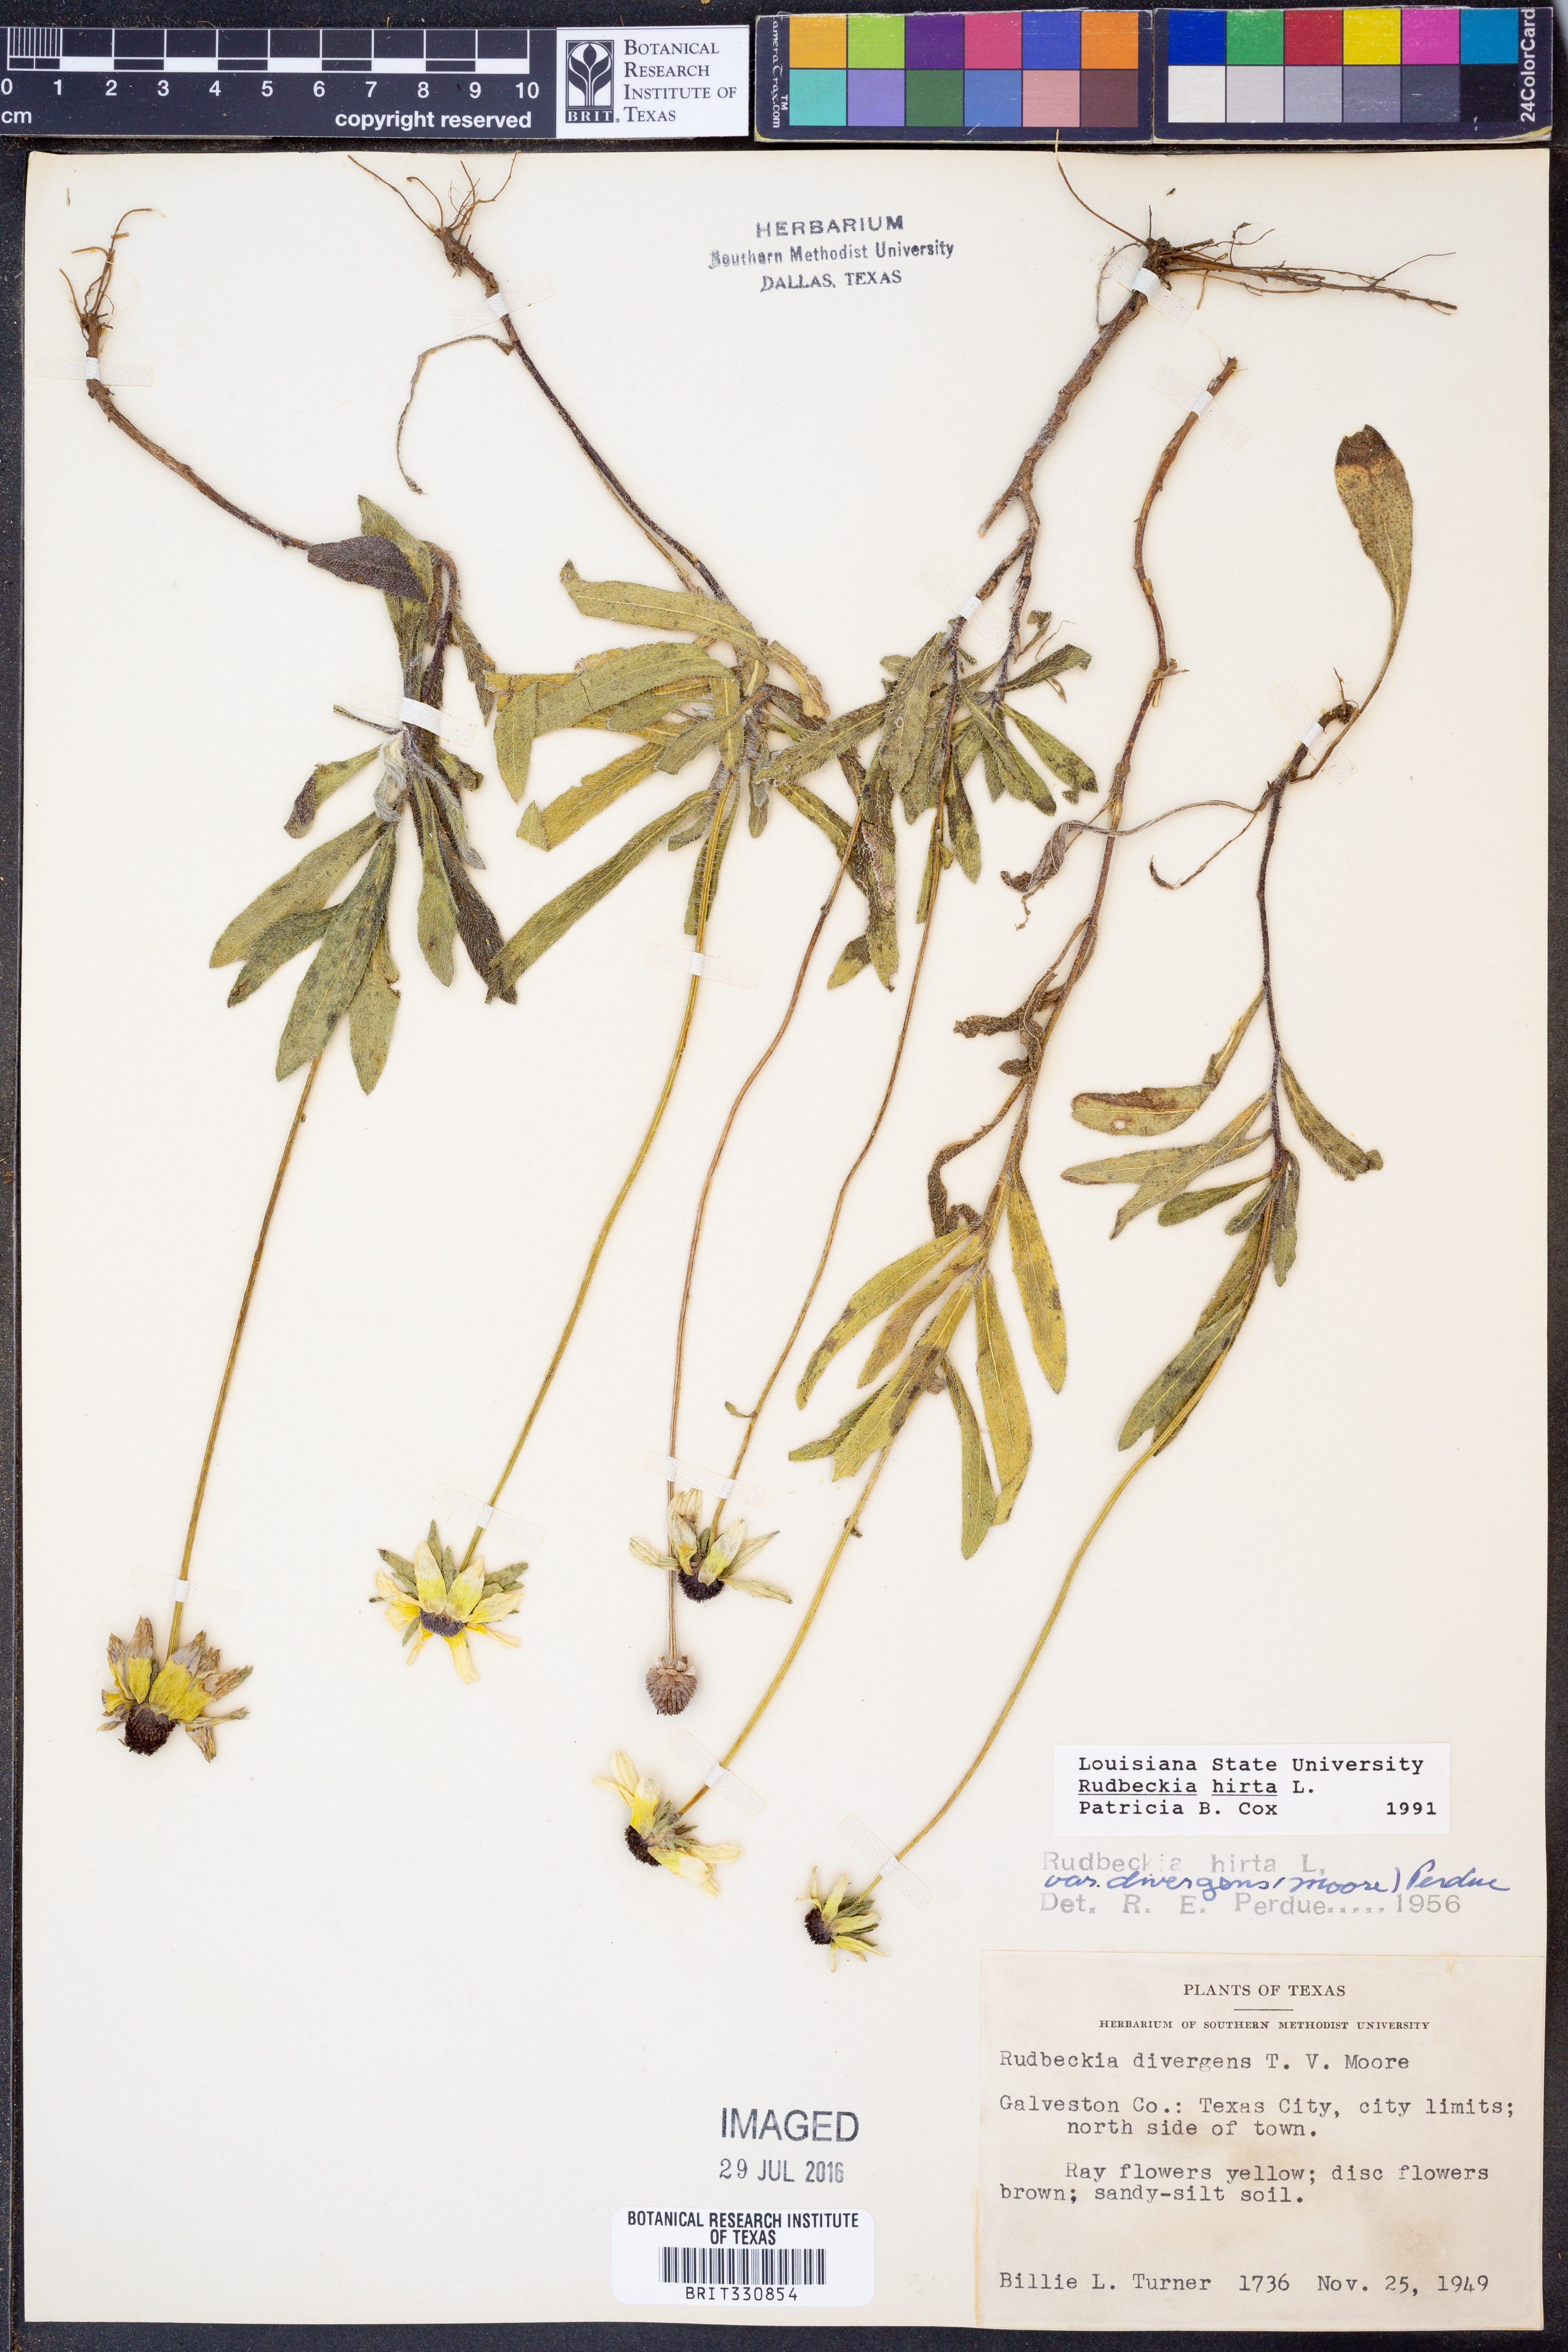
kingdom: Plantae
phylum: Tracheophyta
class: Magnoliopsida
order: Asterales
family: Asteraceae
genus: Rudbeckia
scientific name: Rudbeckia hirta
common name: Black-eyed-susan
